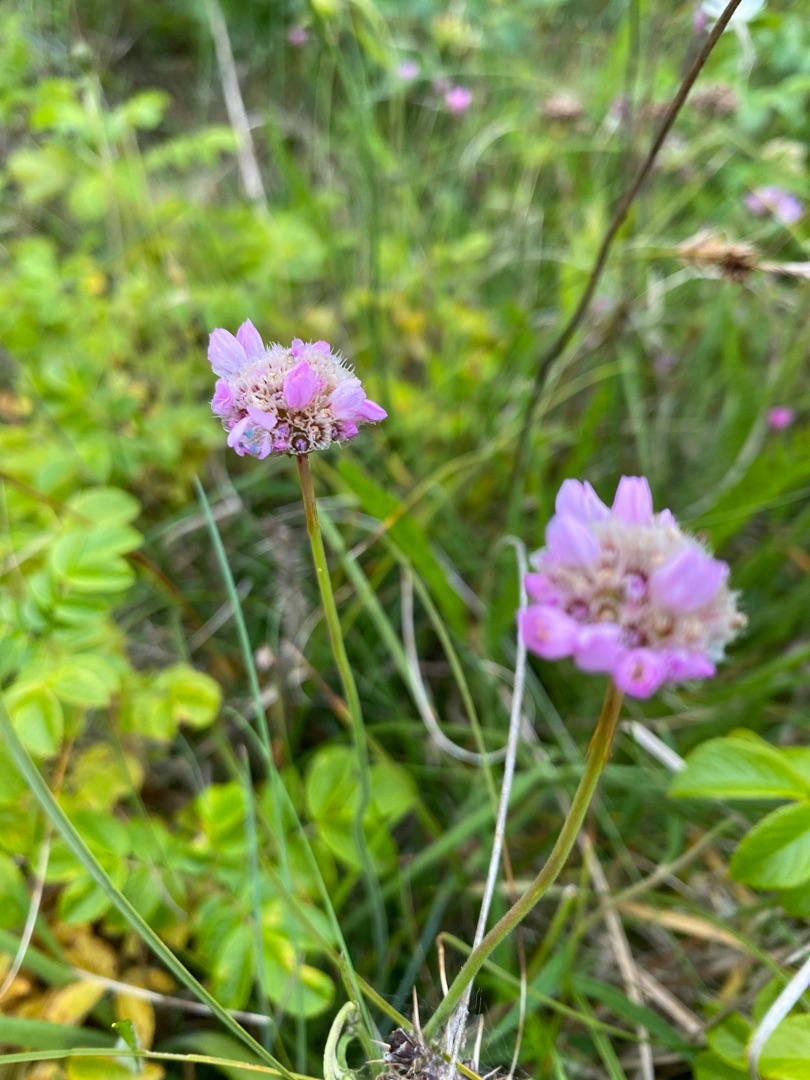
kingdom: Plantae
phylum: Tracheophyta
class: Magnoliopsida
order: Caryophyllales
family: Plumbaginaceae
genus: Armeria
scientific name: Armeria maritima
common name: Engelskgræs
